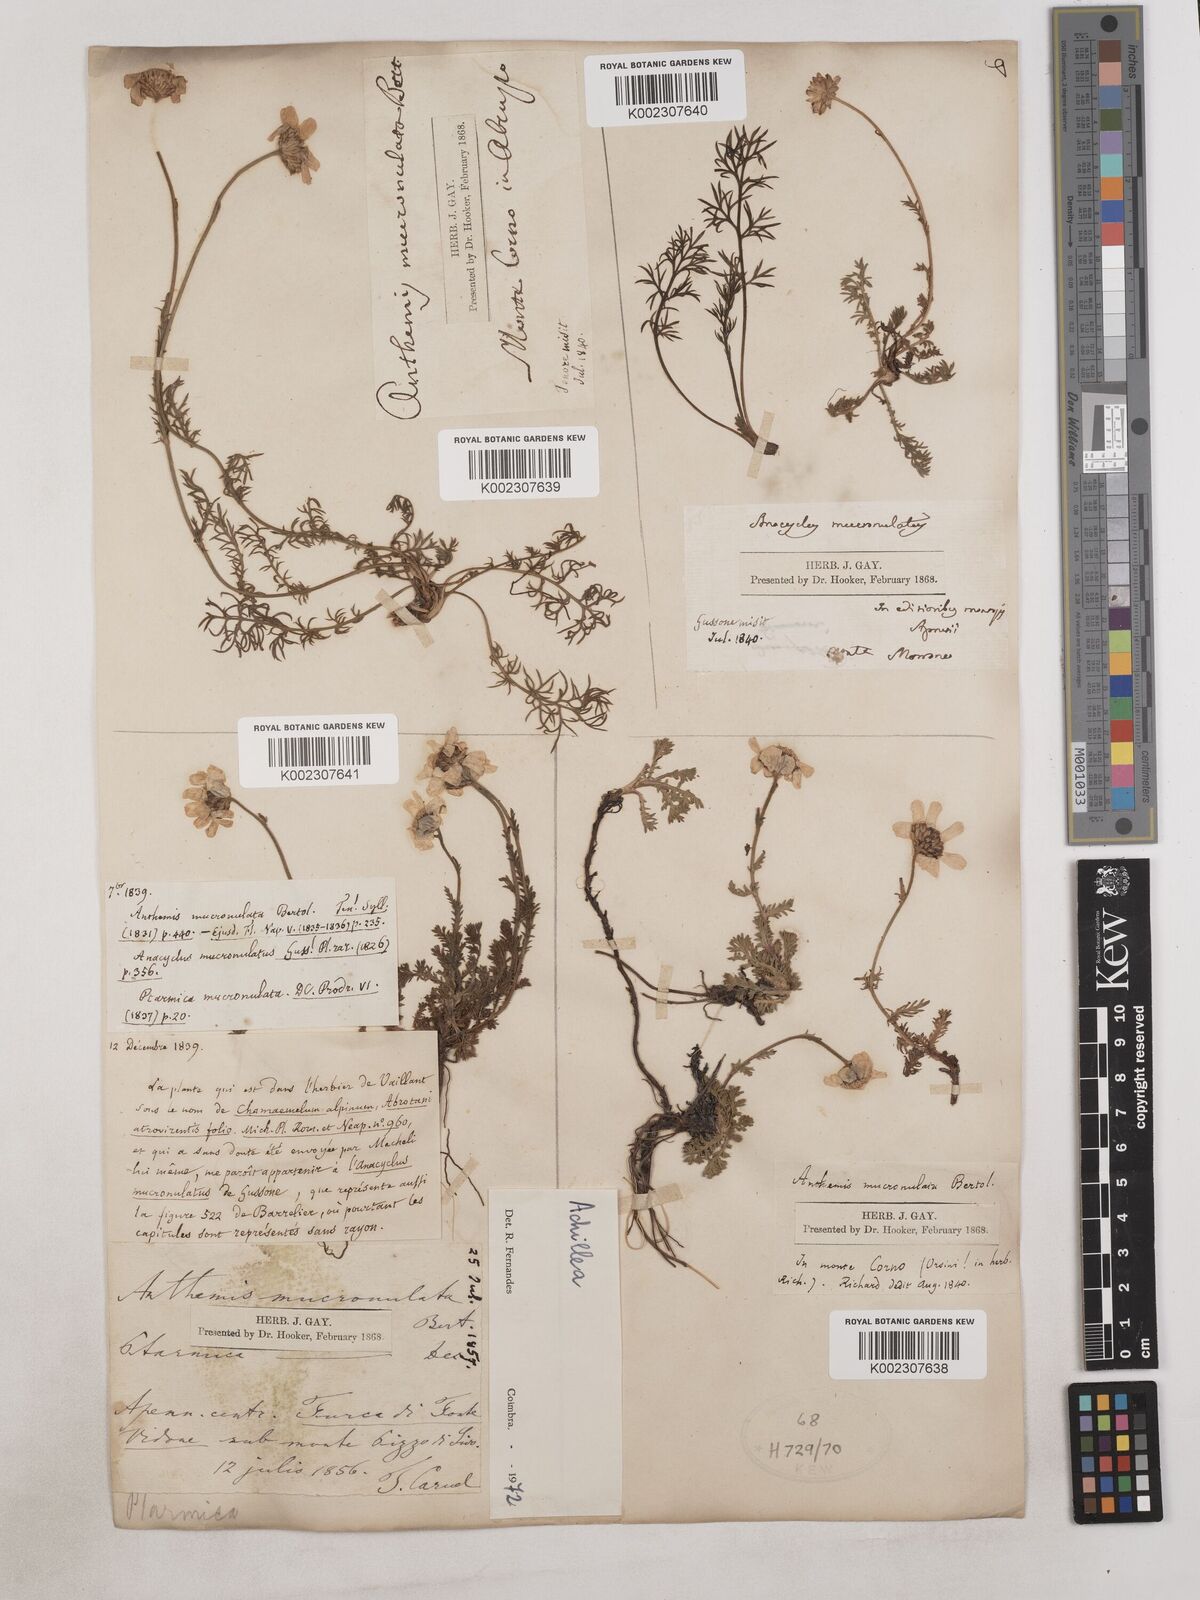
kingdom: Plantae
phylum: Tracheophyta
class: Magnoliopsida
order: Asterales
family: Asteraceae
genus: Achillea
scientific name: Achillea
